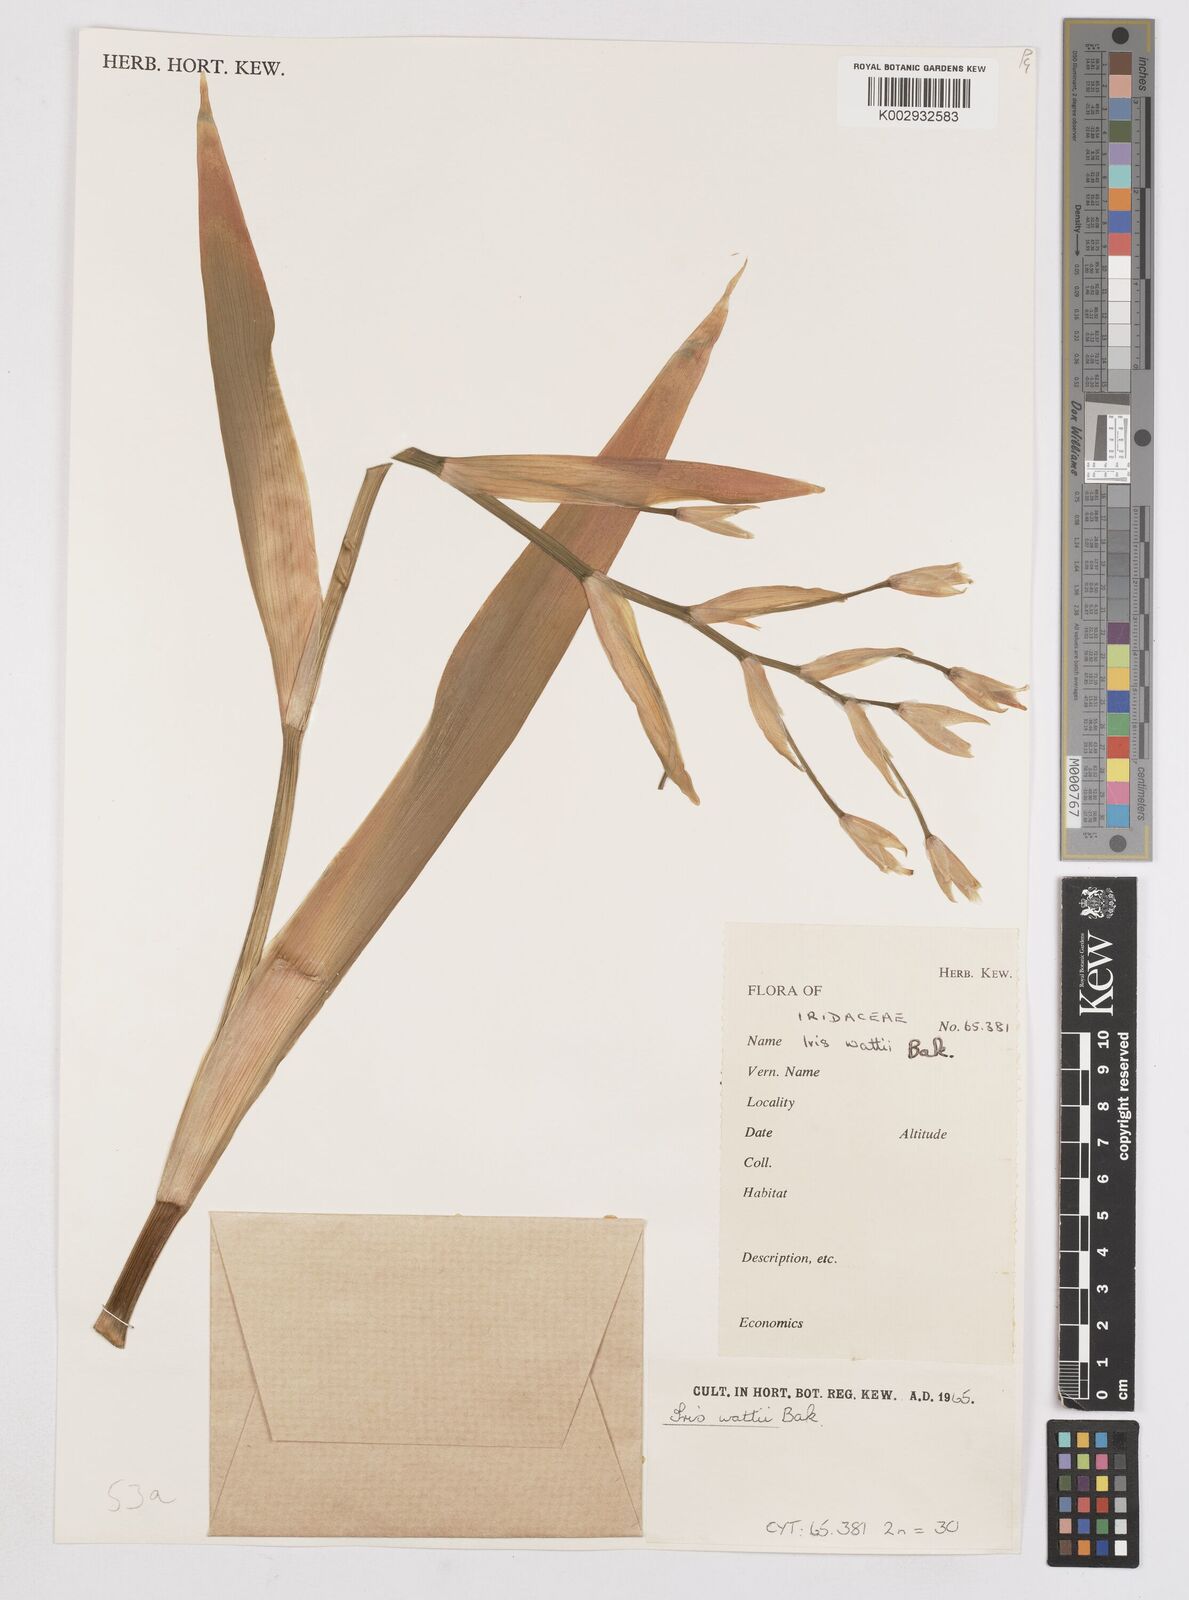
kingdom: Plantae
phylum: Tracheophyta
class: Liliopsida
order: Asparagales
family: Iridaceae
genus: Iris
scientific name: Iris wattii
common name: Fan-shape iris
